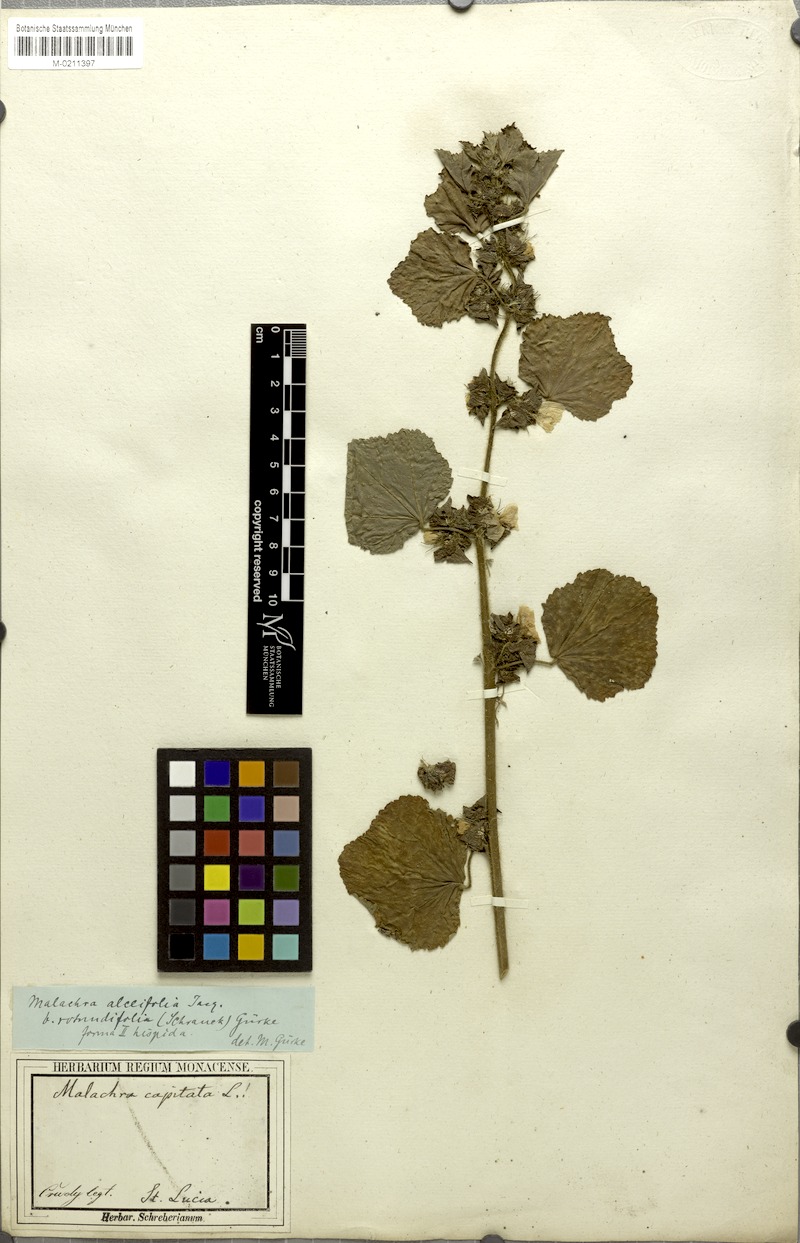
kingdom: Plantae
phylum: Tracheophyta
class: Magnoliopsida
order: Malvales
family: Malvaceae
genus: Malachra
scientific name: Malachra alceifolia
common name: Yellow leafbract
